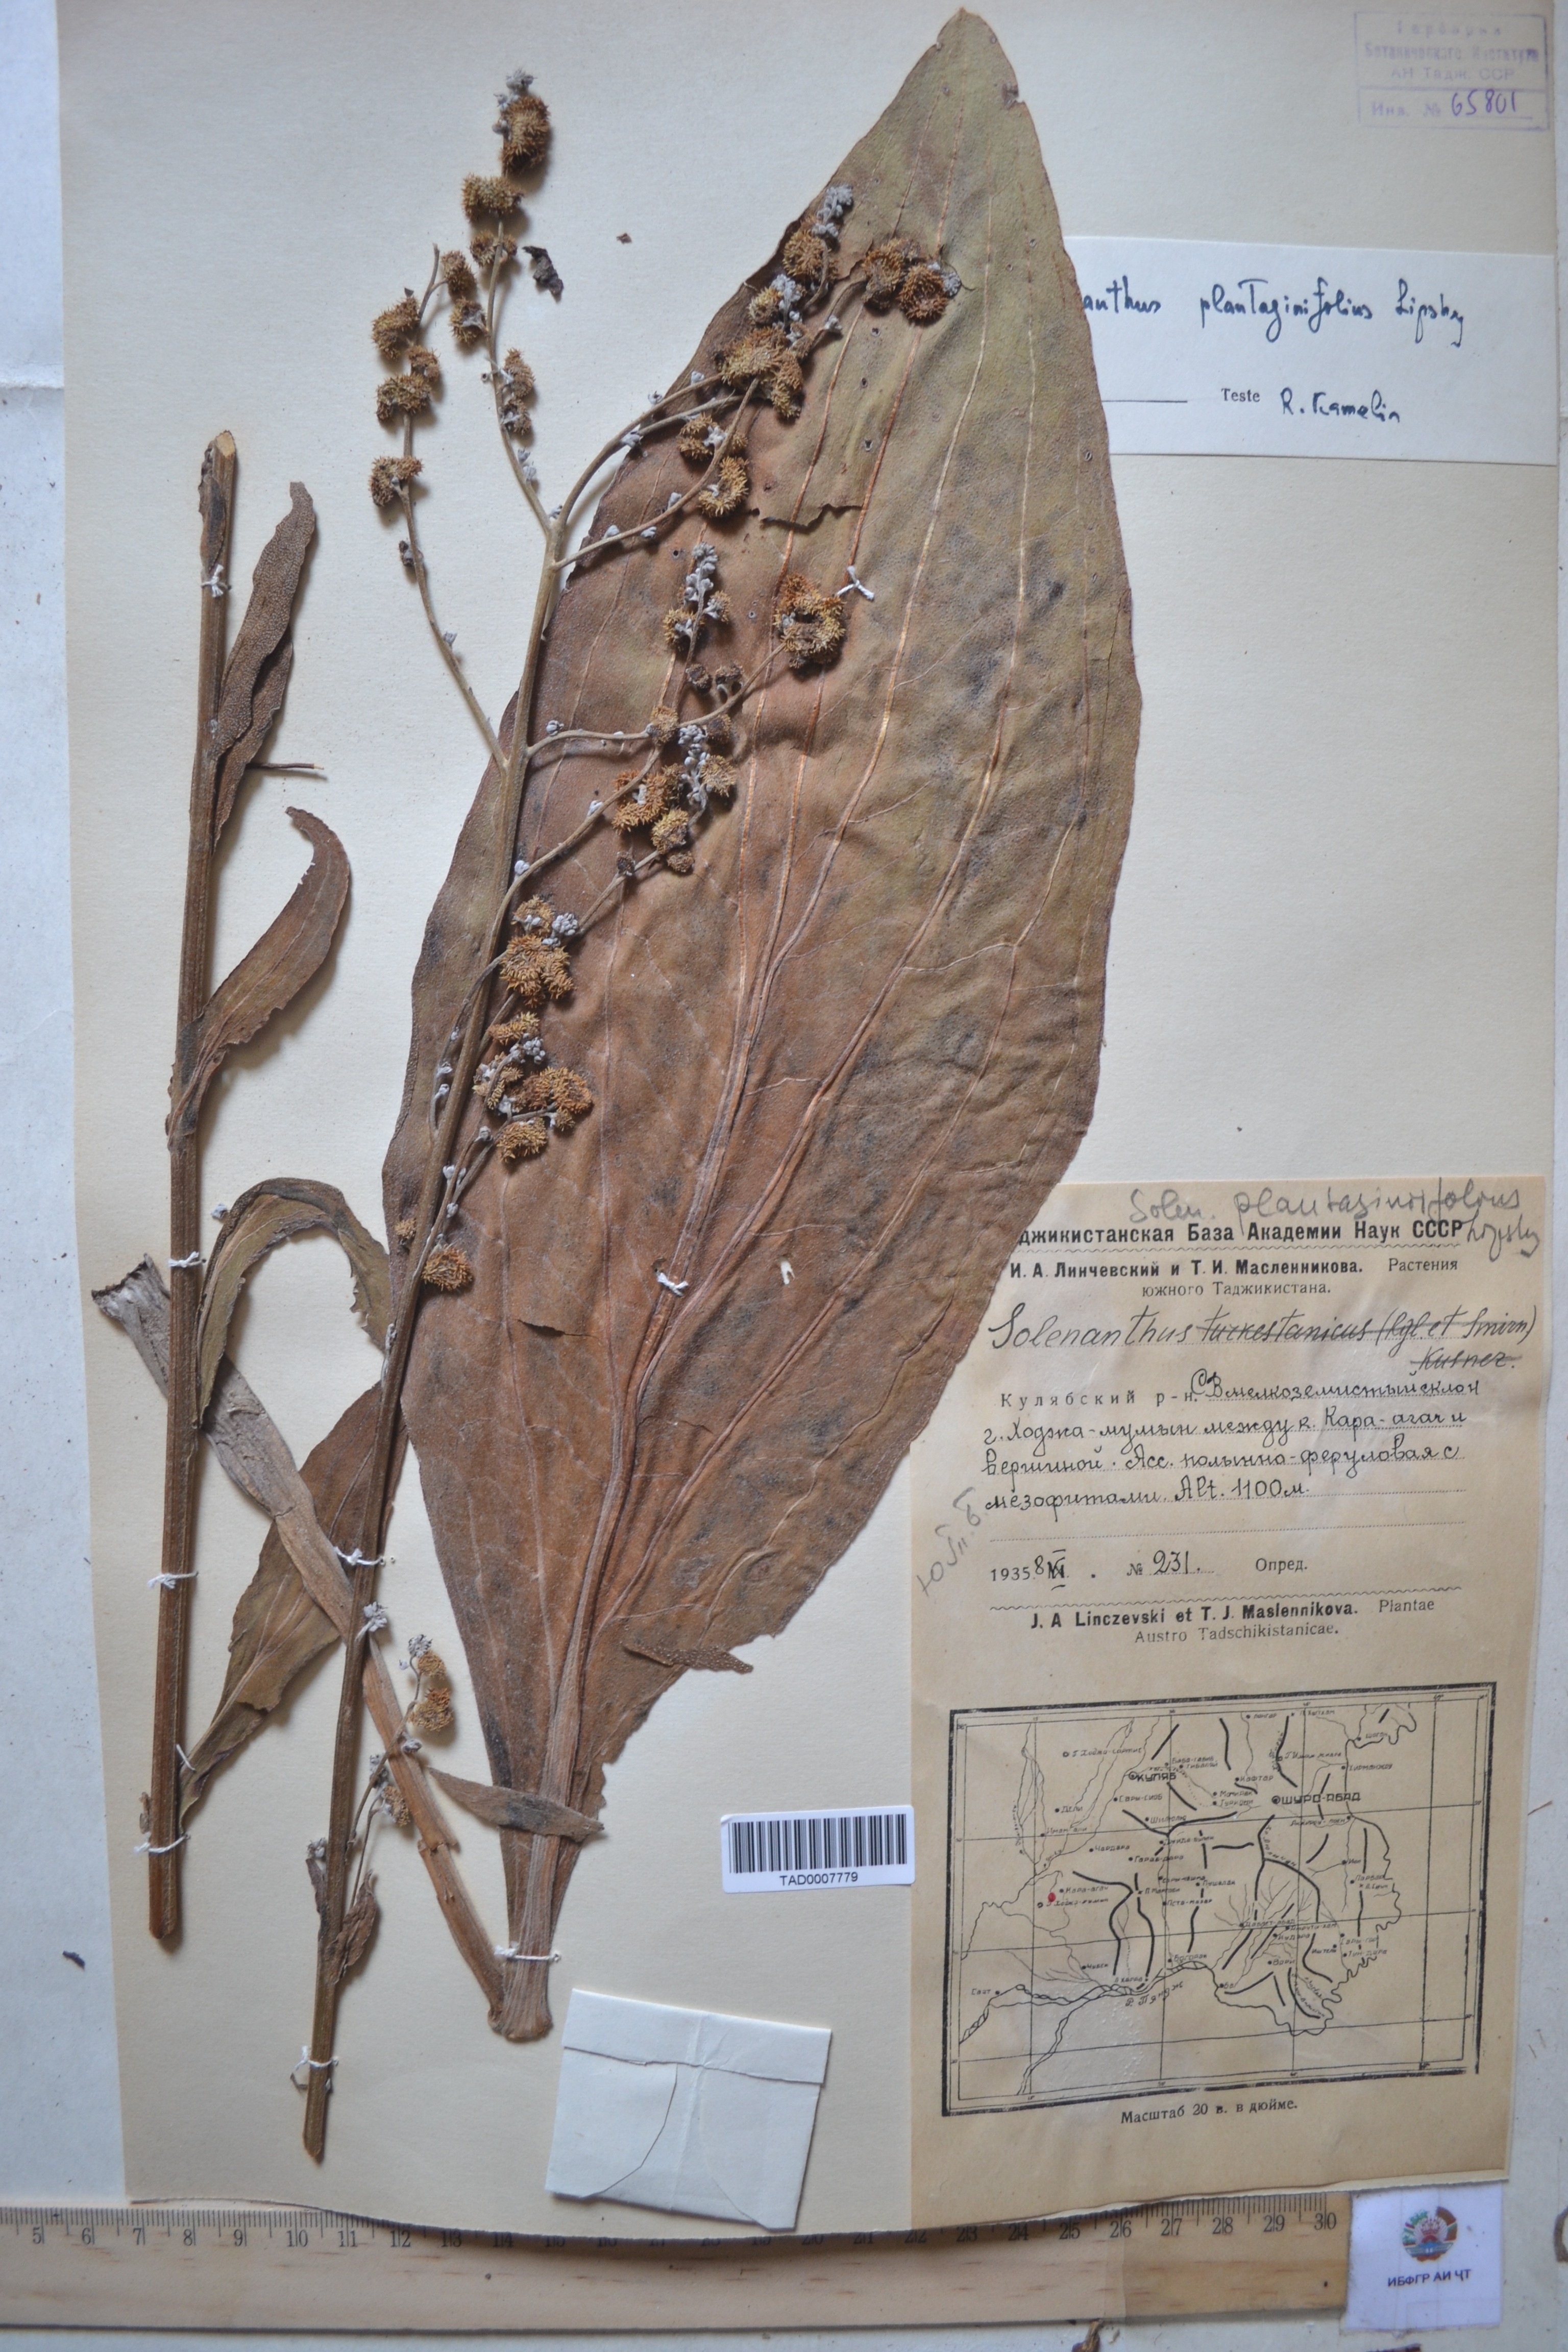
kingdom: Plantae
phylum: Tracheophyta
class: Magnoliopsida
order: Boraginales
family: Boraginaceae
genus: Solenanthus
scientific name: Solenanthus plantaginifolius
